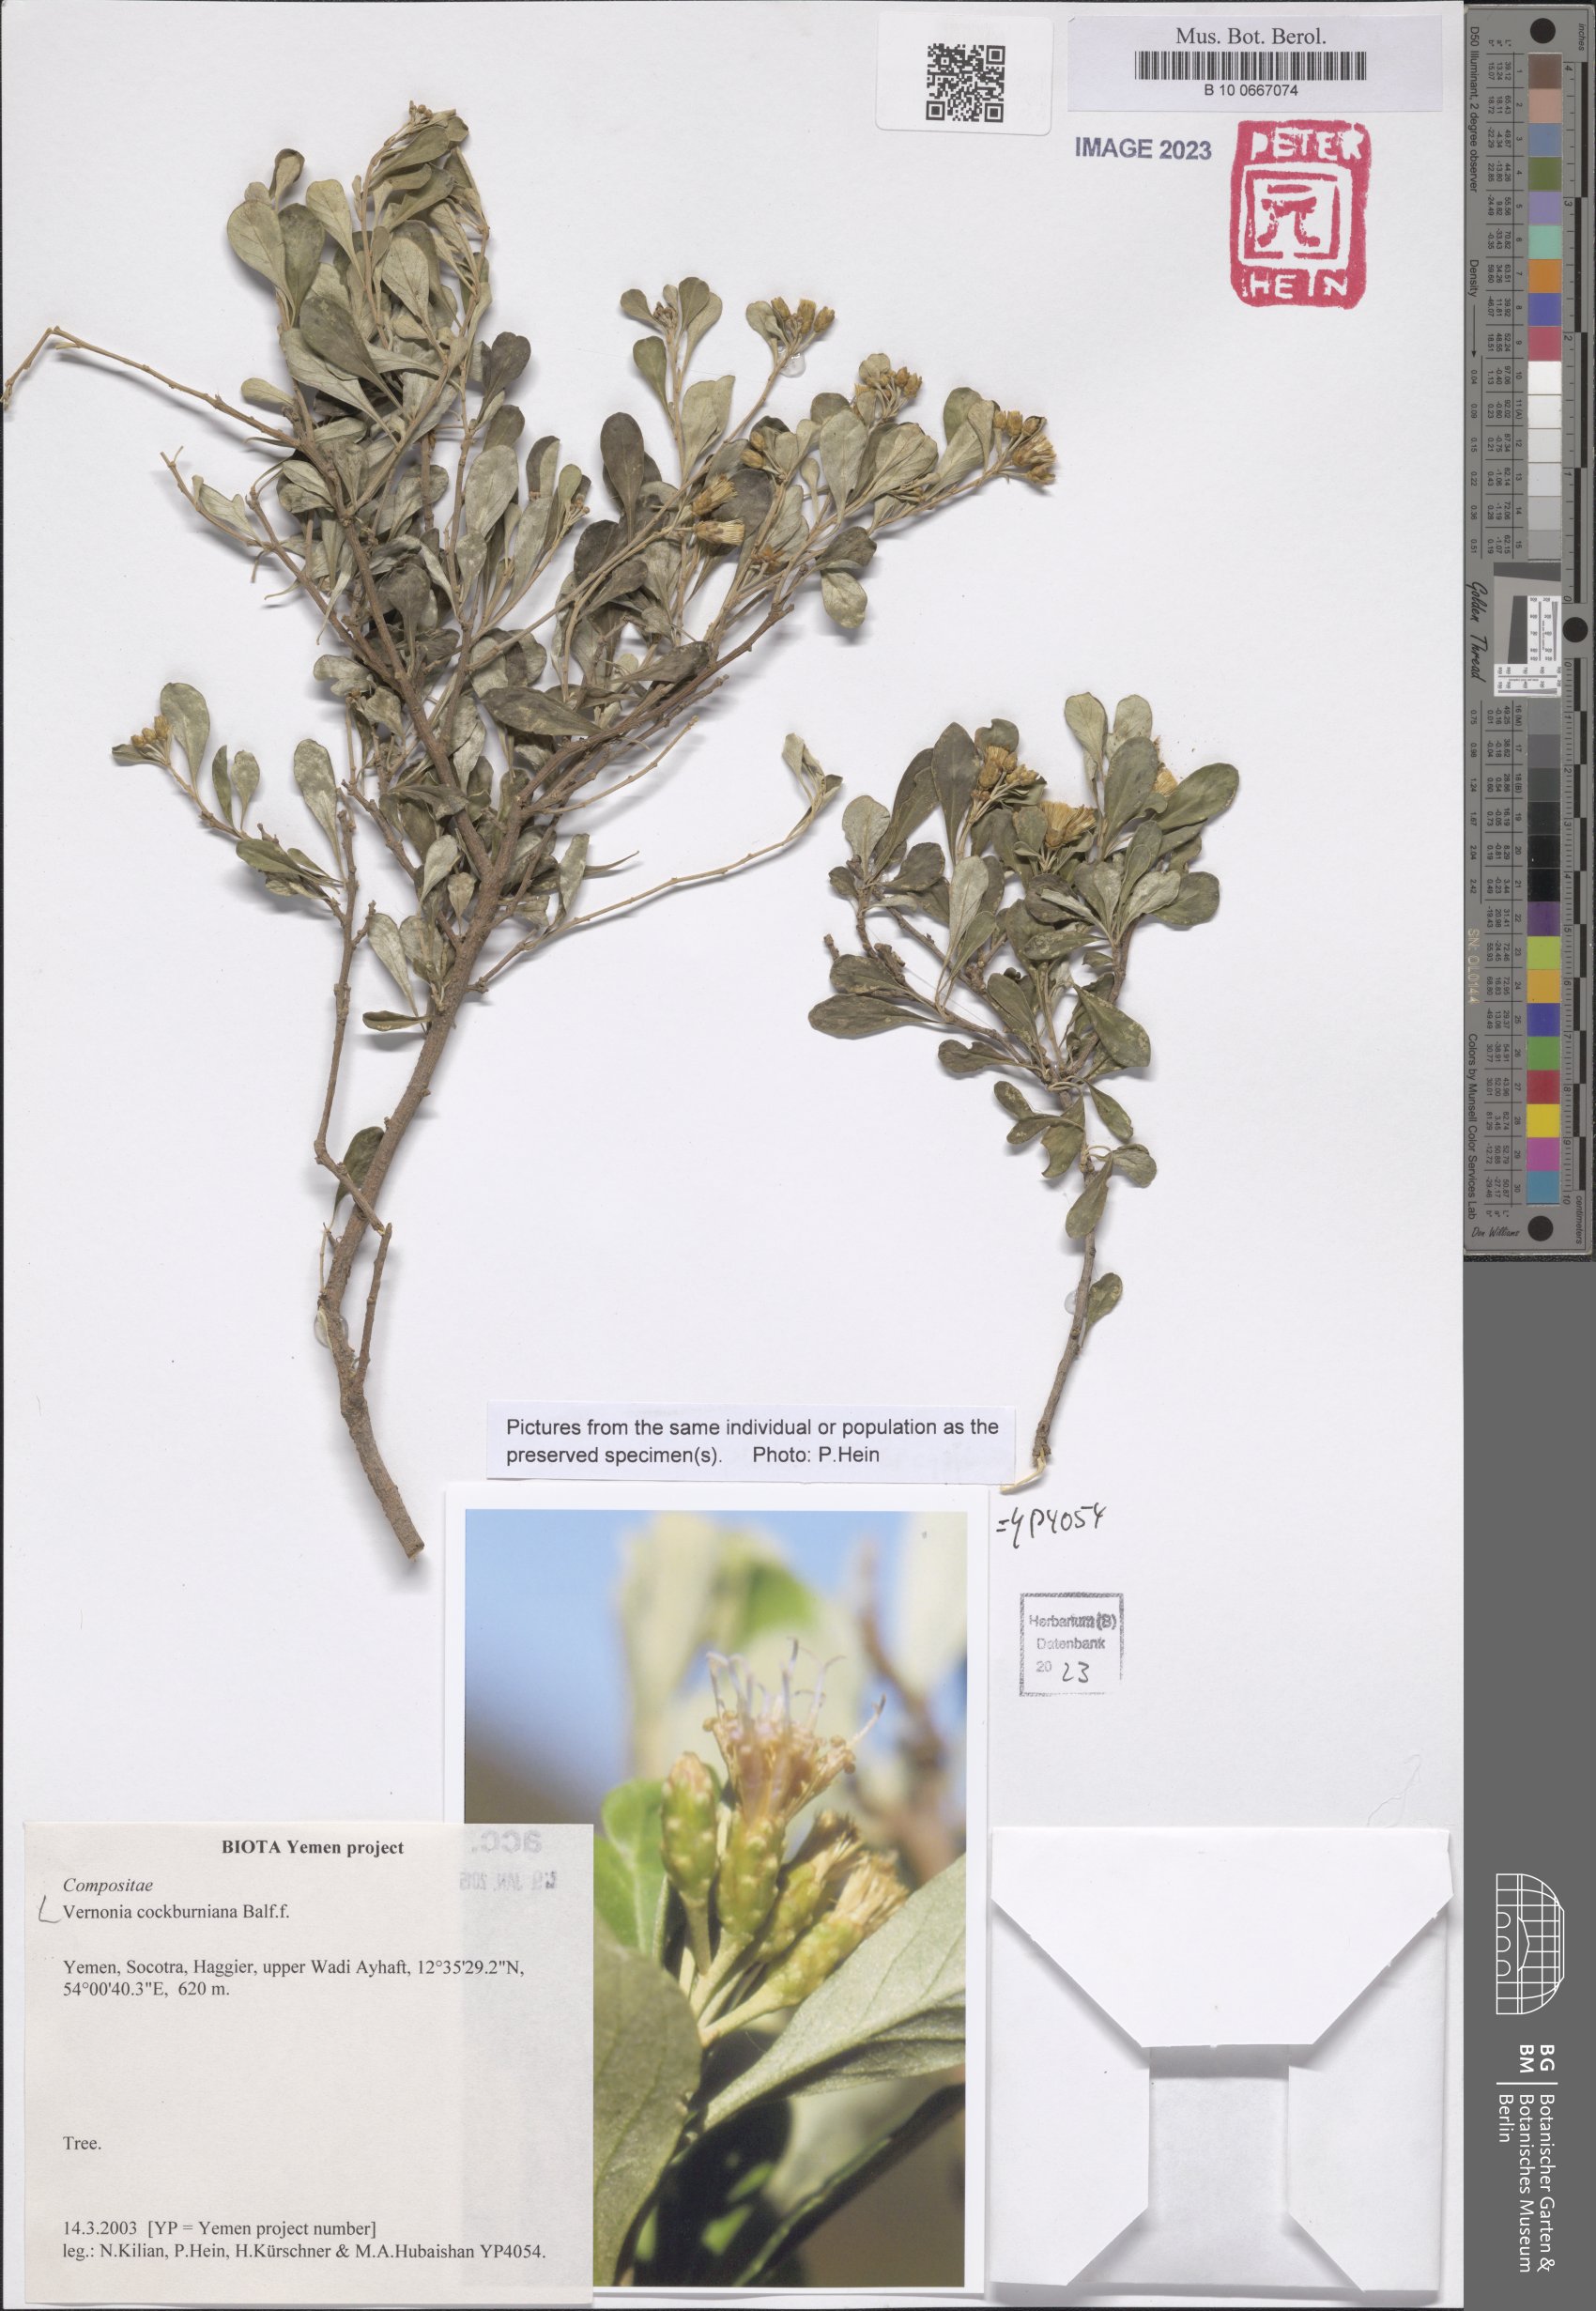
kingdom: Plantae
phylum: Tracheophyta
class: Magnoliopsida
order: Asterales
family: Asteraceae
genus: Vernonia
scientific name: Vernonia cockburniana
